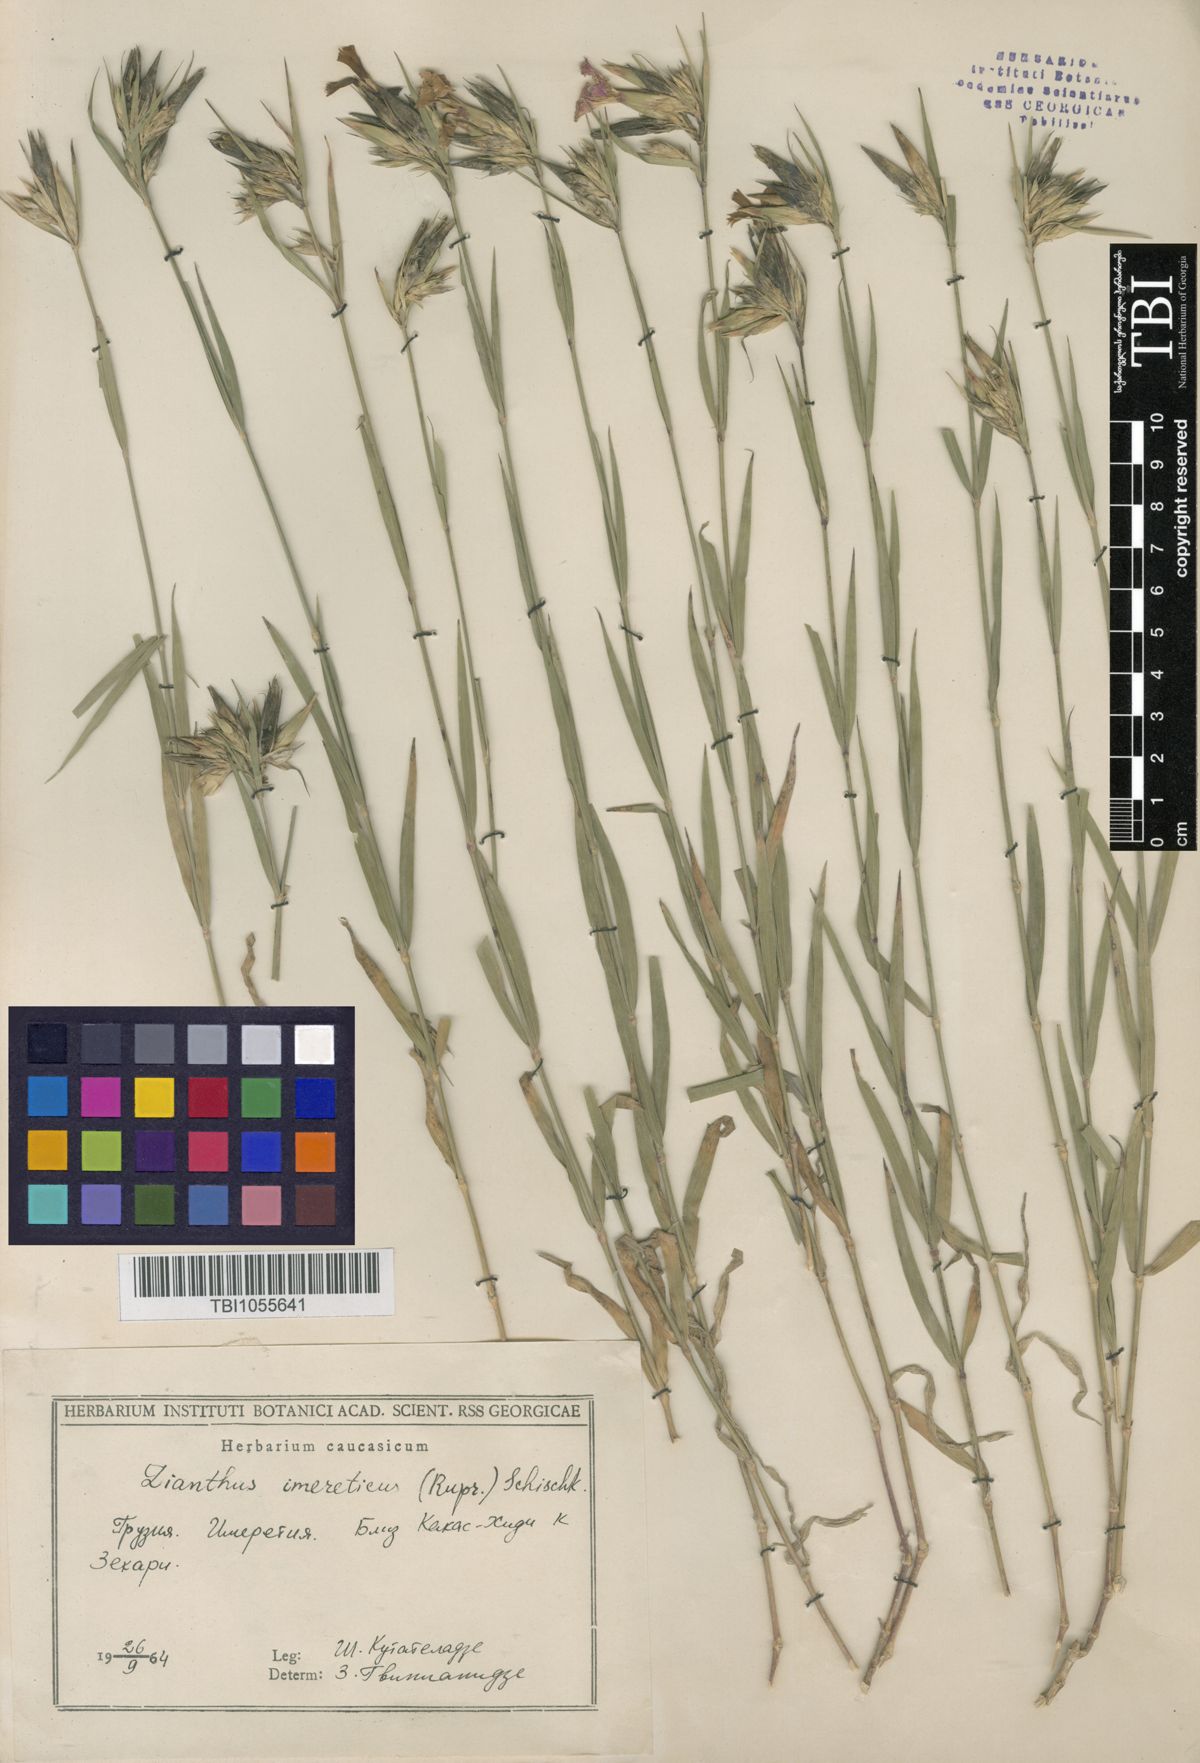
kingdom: Plantae
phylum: Tracheophyta
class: Magnoliopsida
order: Caryophyllales
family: Caryophyllaceae
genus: Dianthus
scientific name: Dianthus imereticus
